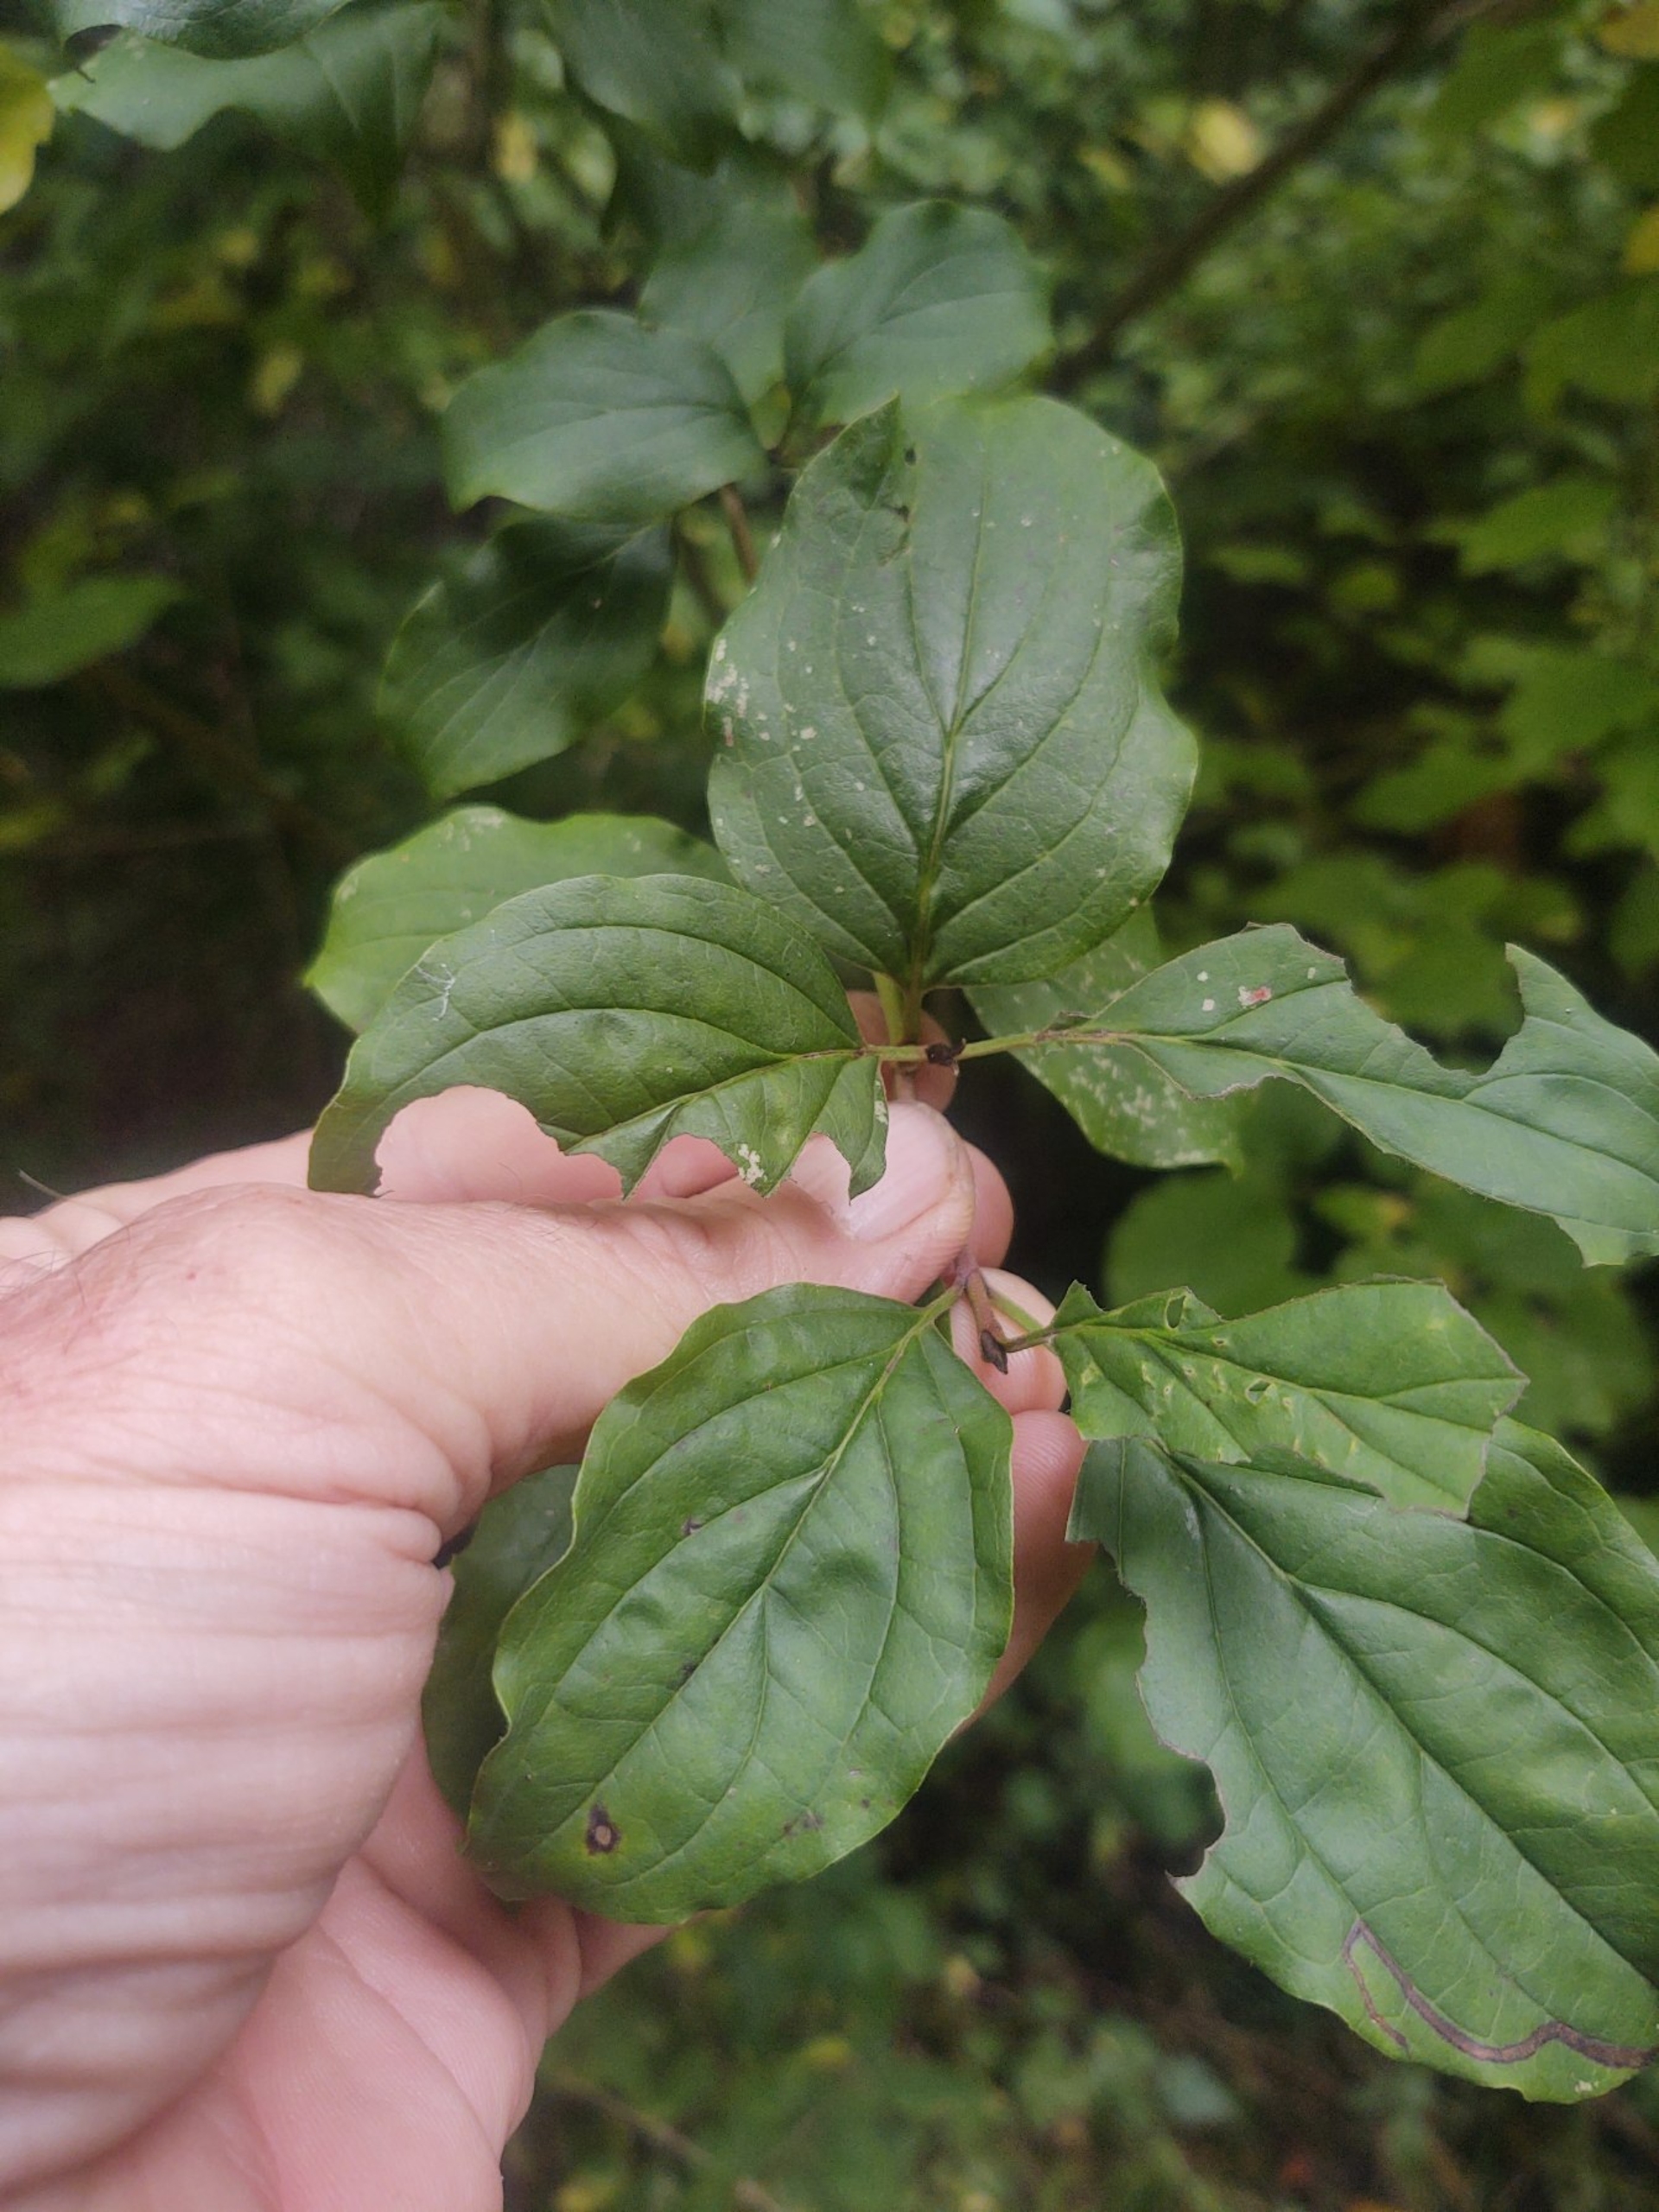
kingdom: Plantae
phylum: Tracheophyta
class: Magnoliopsida
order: Cornales
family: Cornaceae
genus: Cornus
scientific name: Cornus sanguinea
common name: Rød kornel
